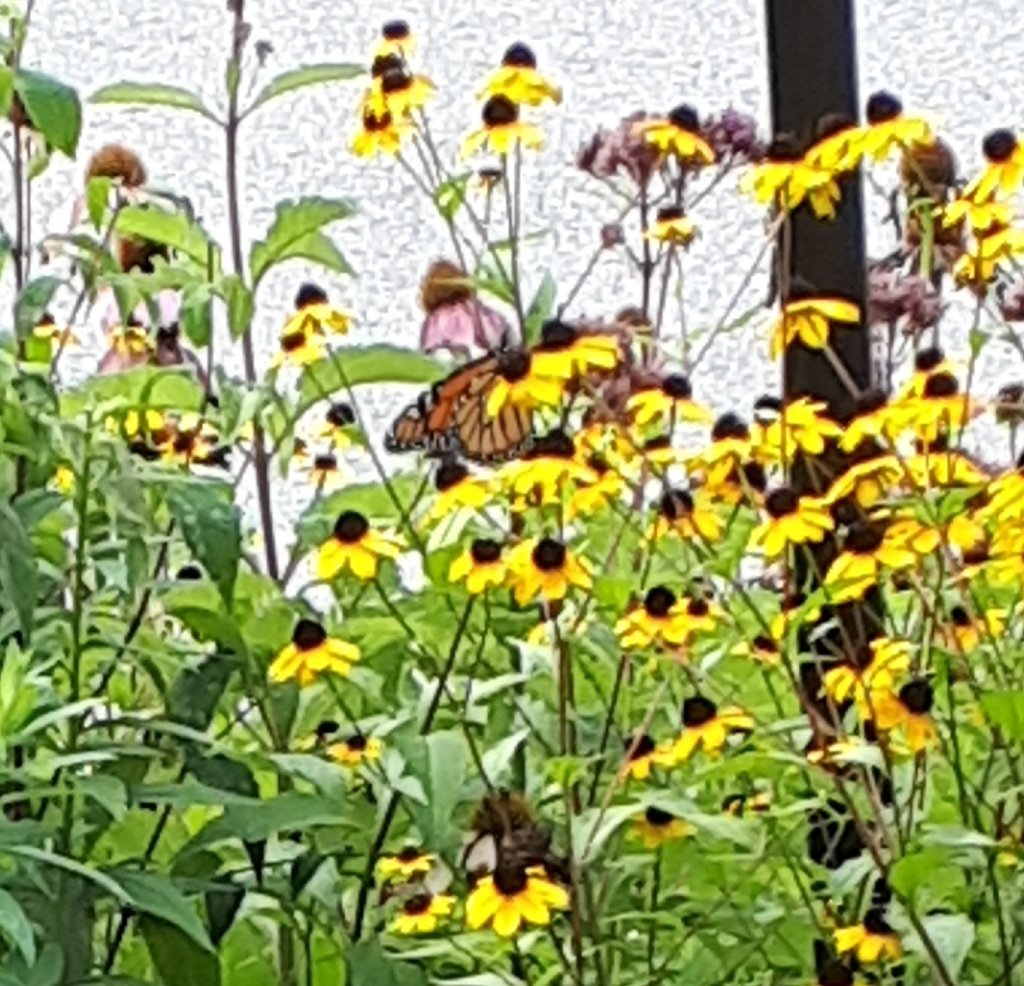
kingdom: Animalia
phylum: Arthropoda
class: Insecta
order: Lepidoptera
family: Nymphalidae
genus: Danaus
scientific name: Danaus plexippus
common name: Monarch
